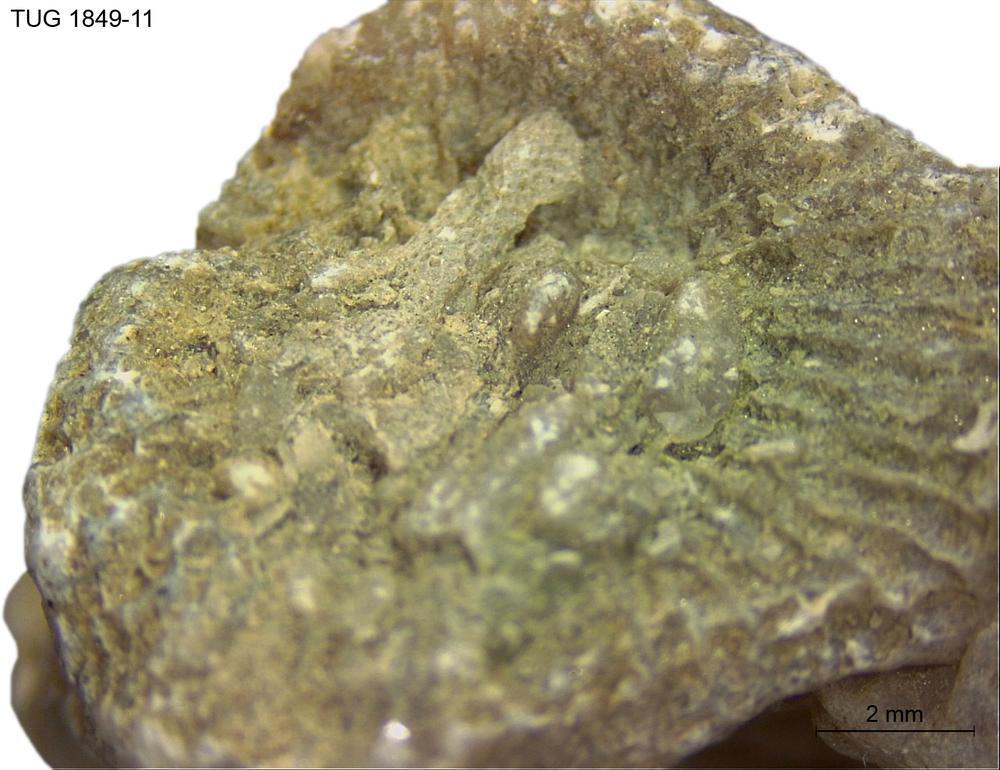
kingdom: Animalia
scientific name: Animalia
